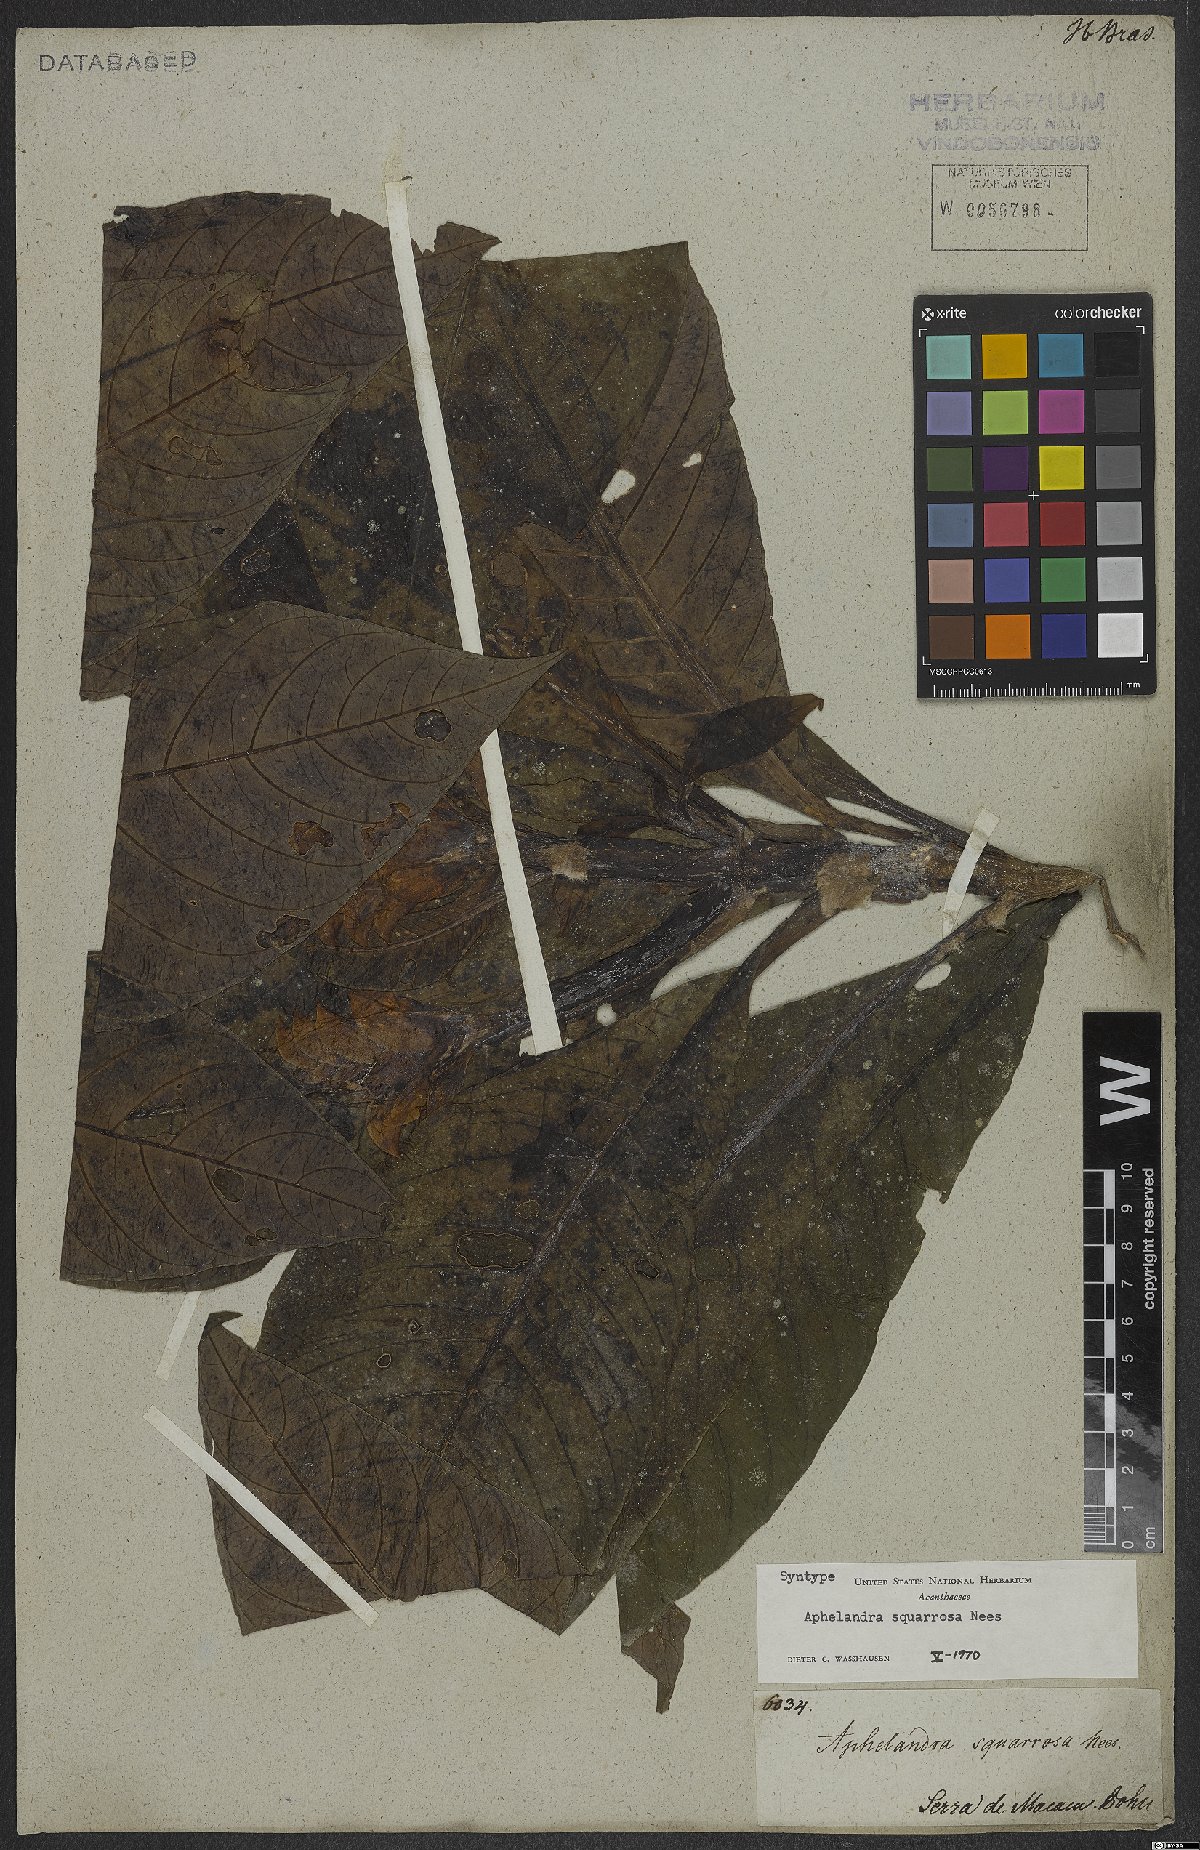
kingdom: Plantae
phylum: Tracheophyta
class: Magnoliopsida
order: Lamiales
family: Acanthaceae
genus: Aphelandra
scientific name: Aphelandra squarrosa
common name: Saffron spike
